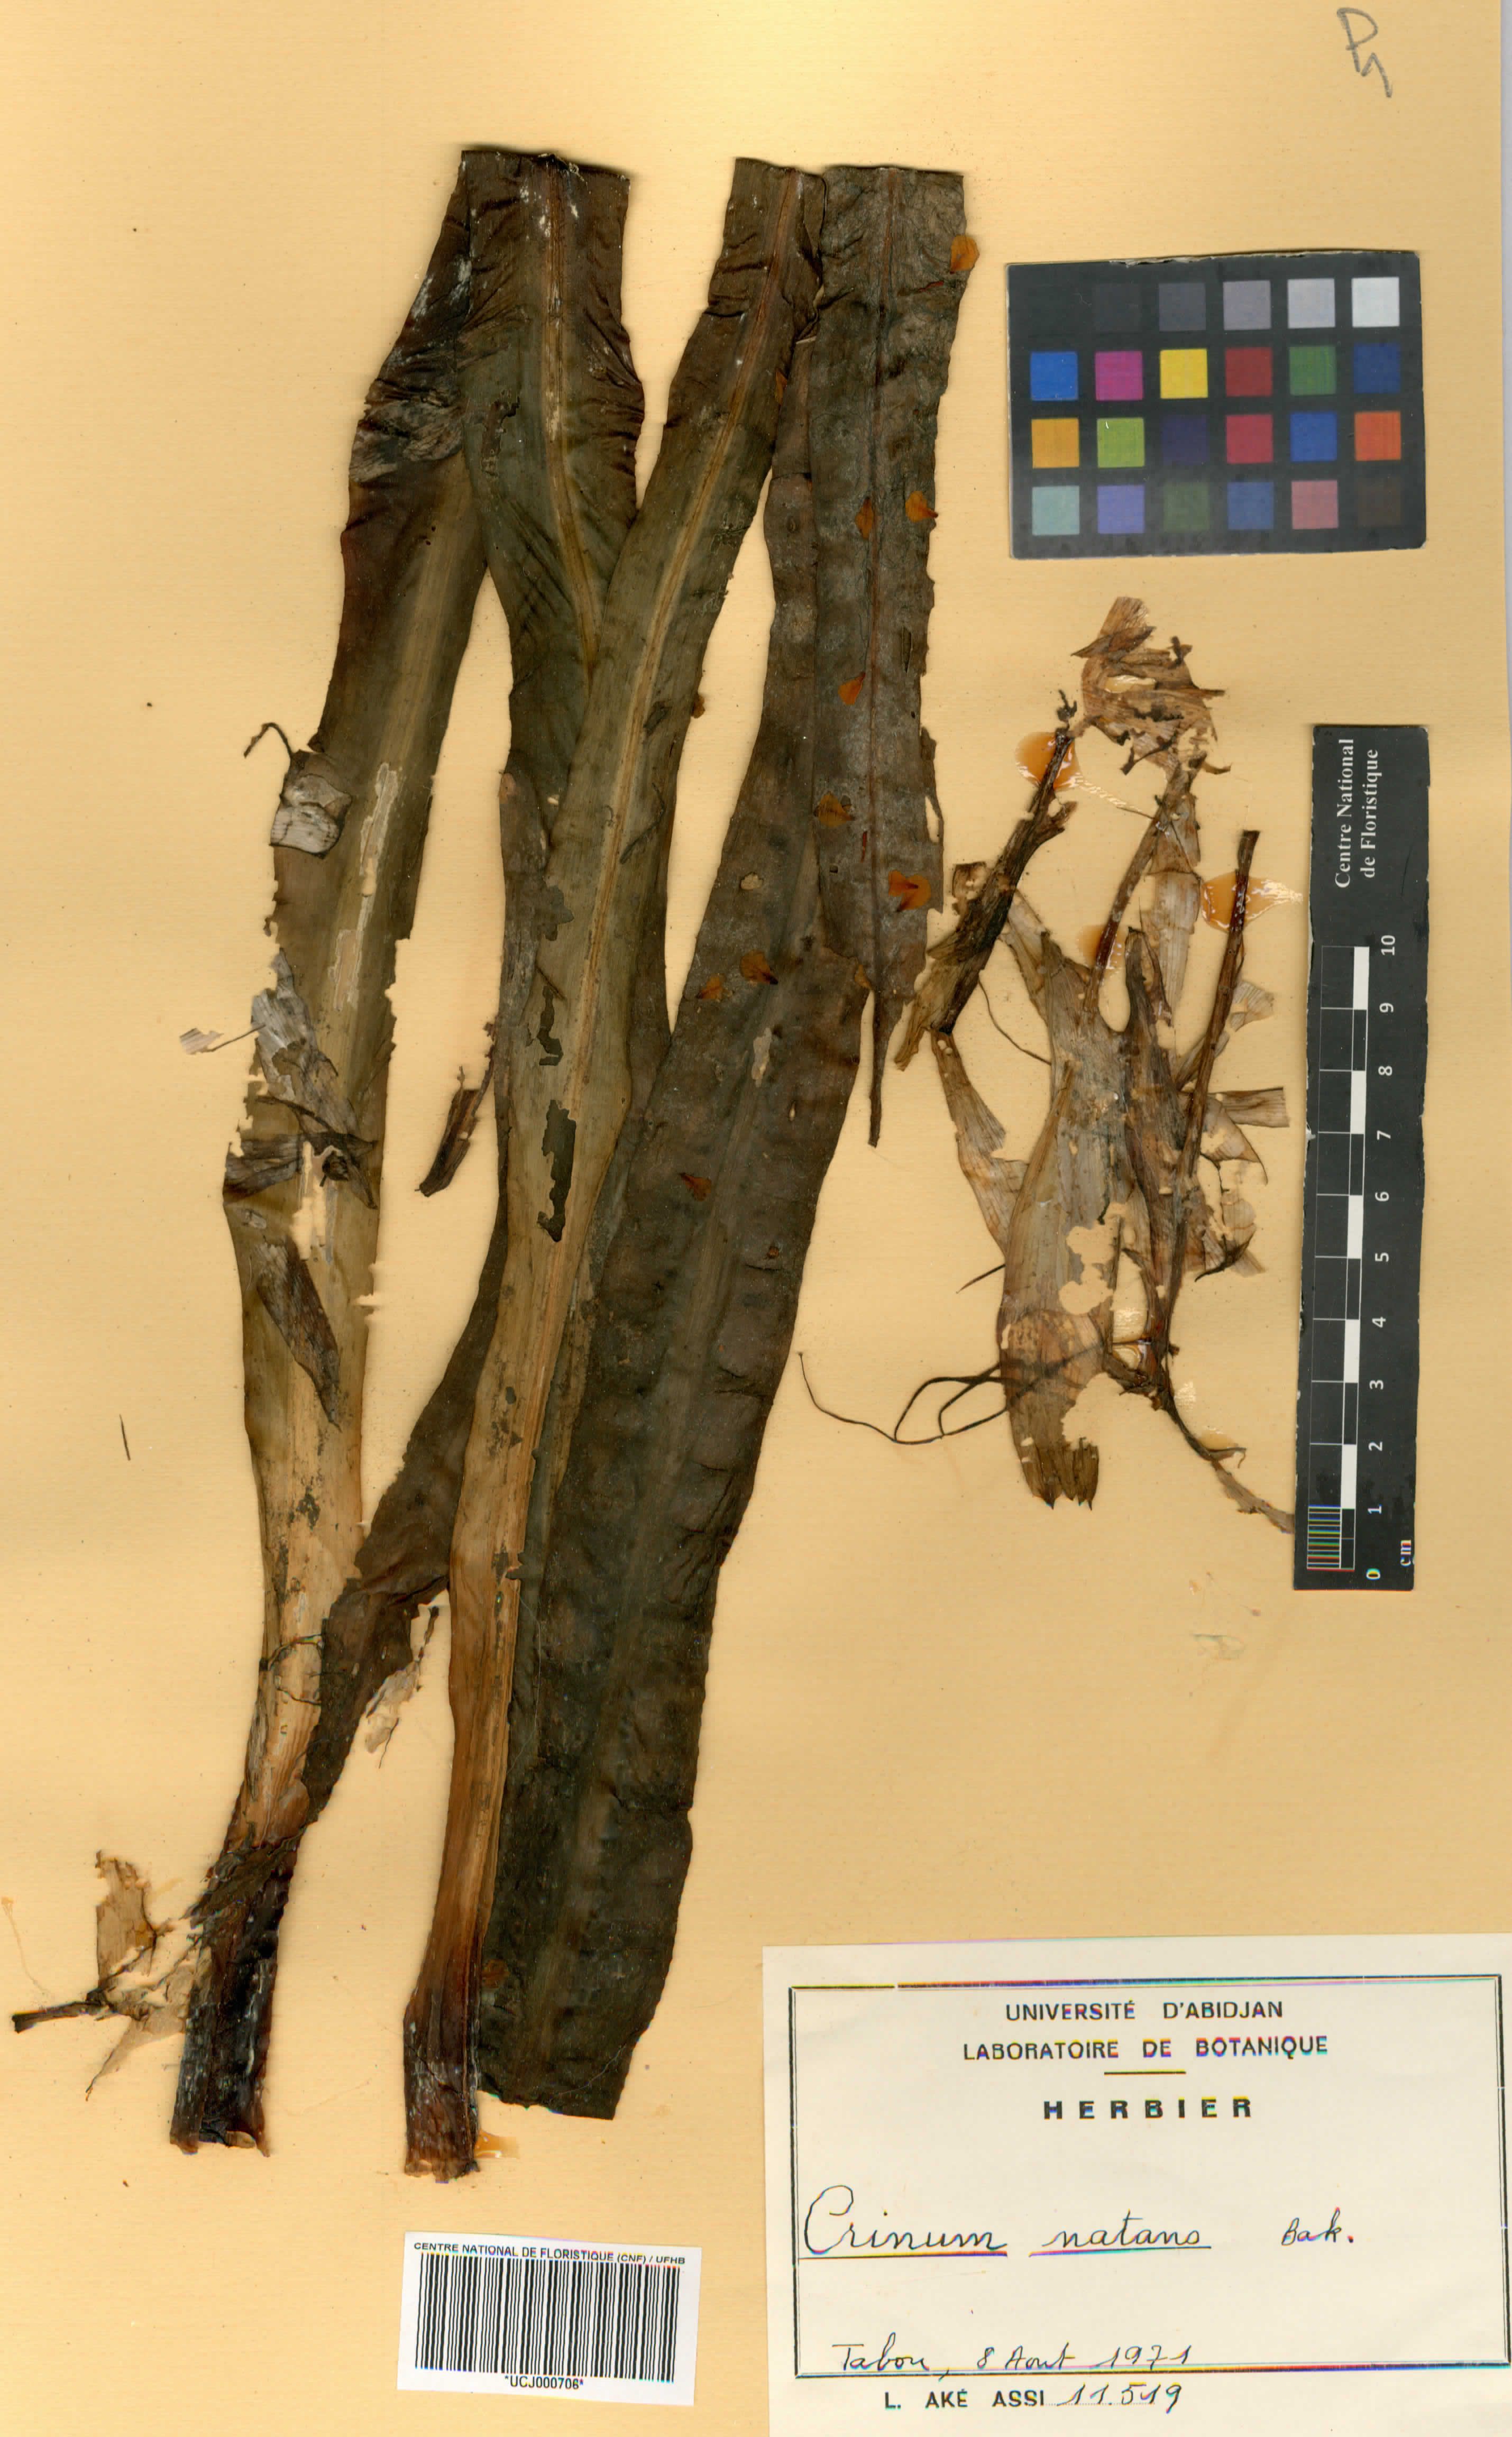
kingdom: Plantae
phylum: Tracheophyta
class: Liliopsida
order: Asparagales
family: Amaryllidaceae
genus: Crinum
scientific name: Crinum natans
